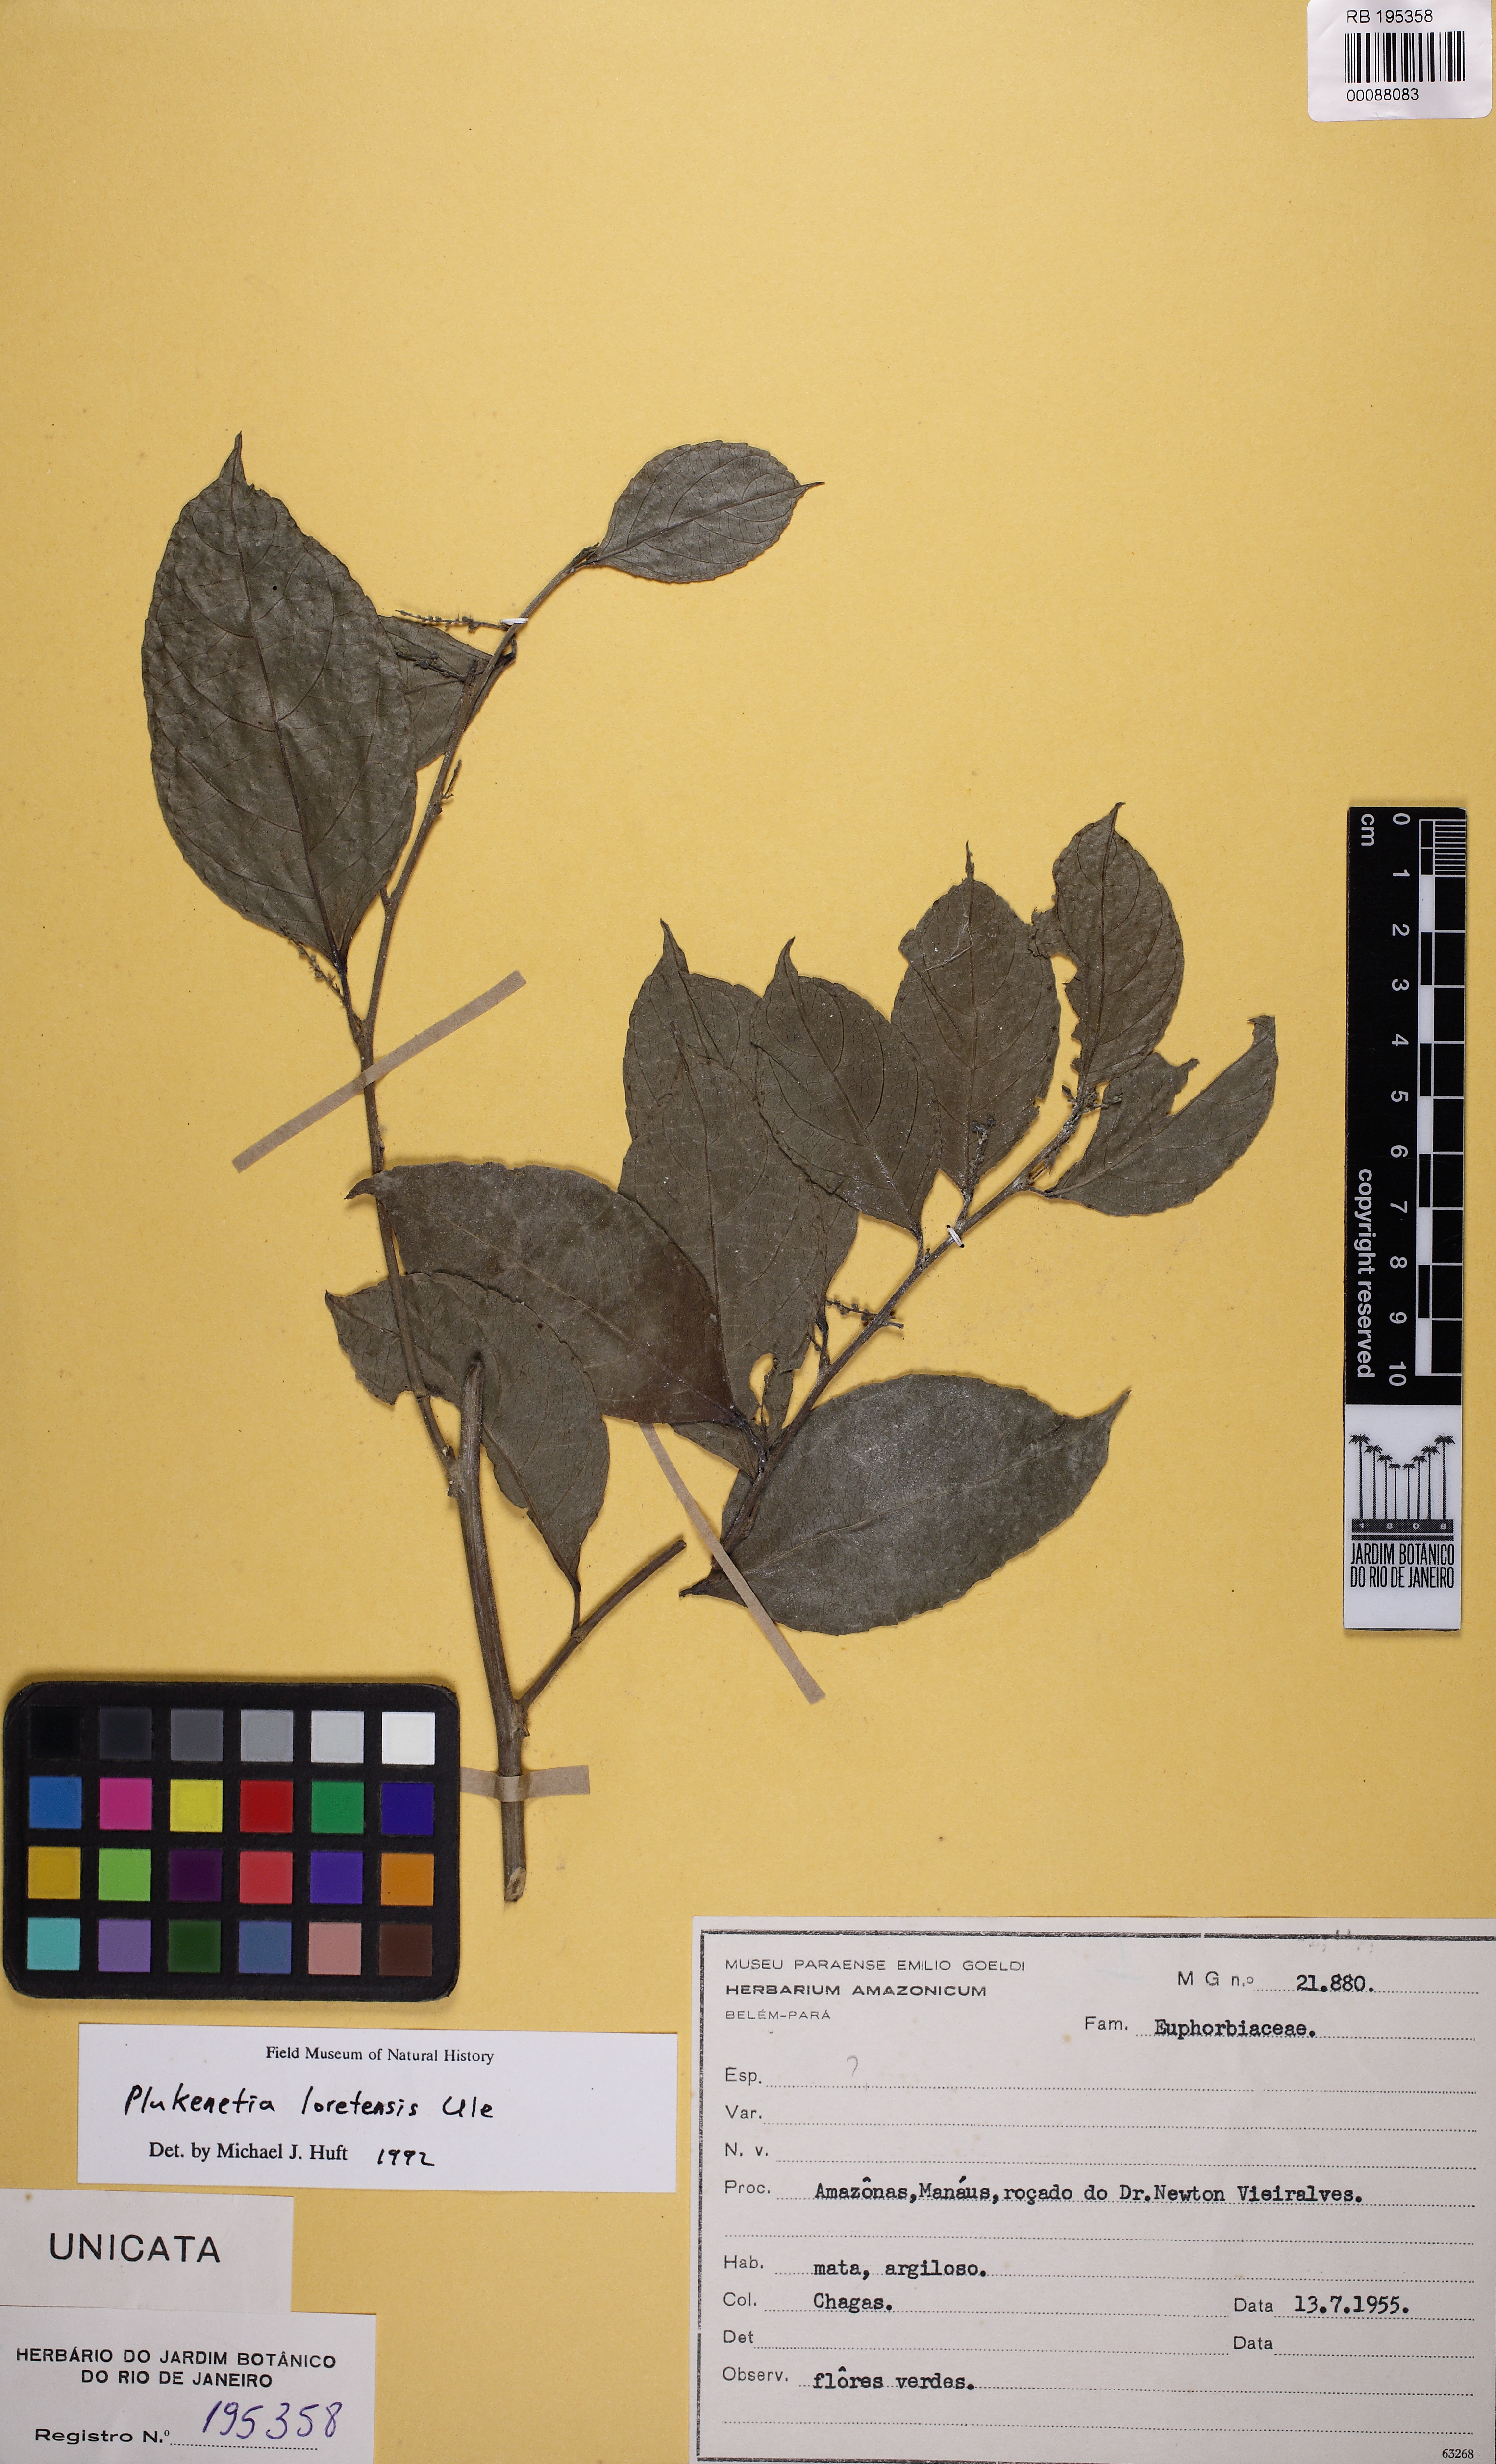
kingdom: Plantae
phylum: Tracheophyta
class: Magnoliopsida
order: Malpighiales
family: Euphorbiaceae
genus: Plukenetia
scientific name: Plukenetia loretensis
